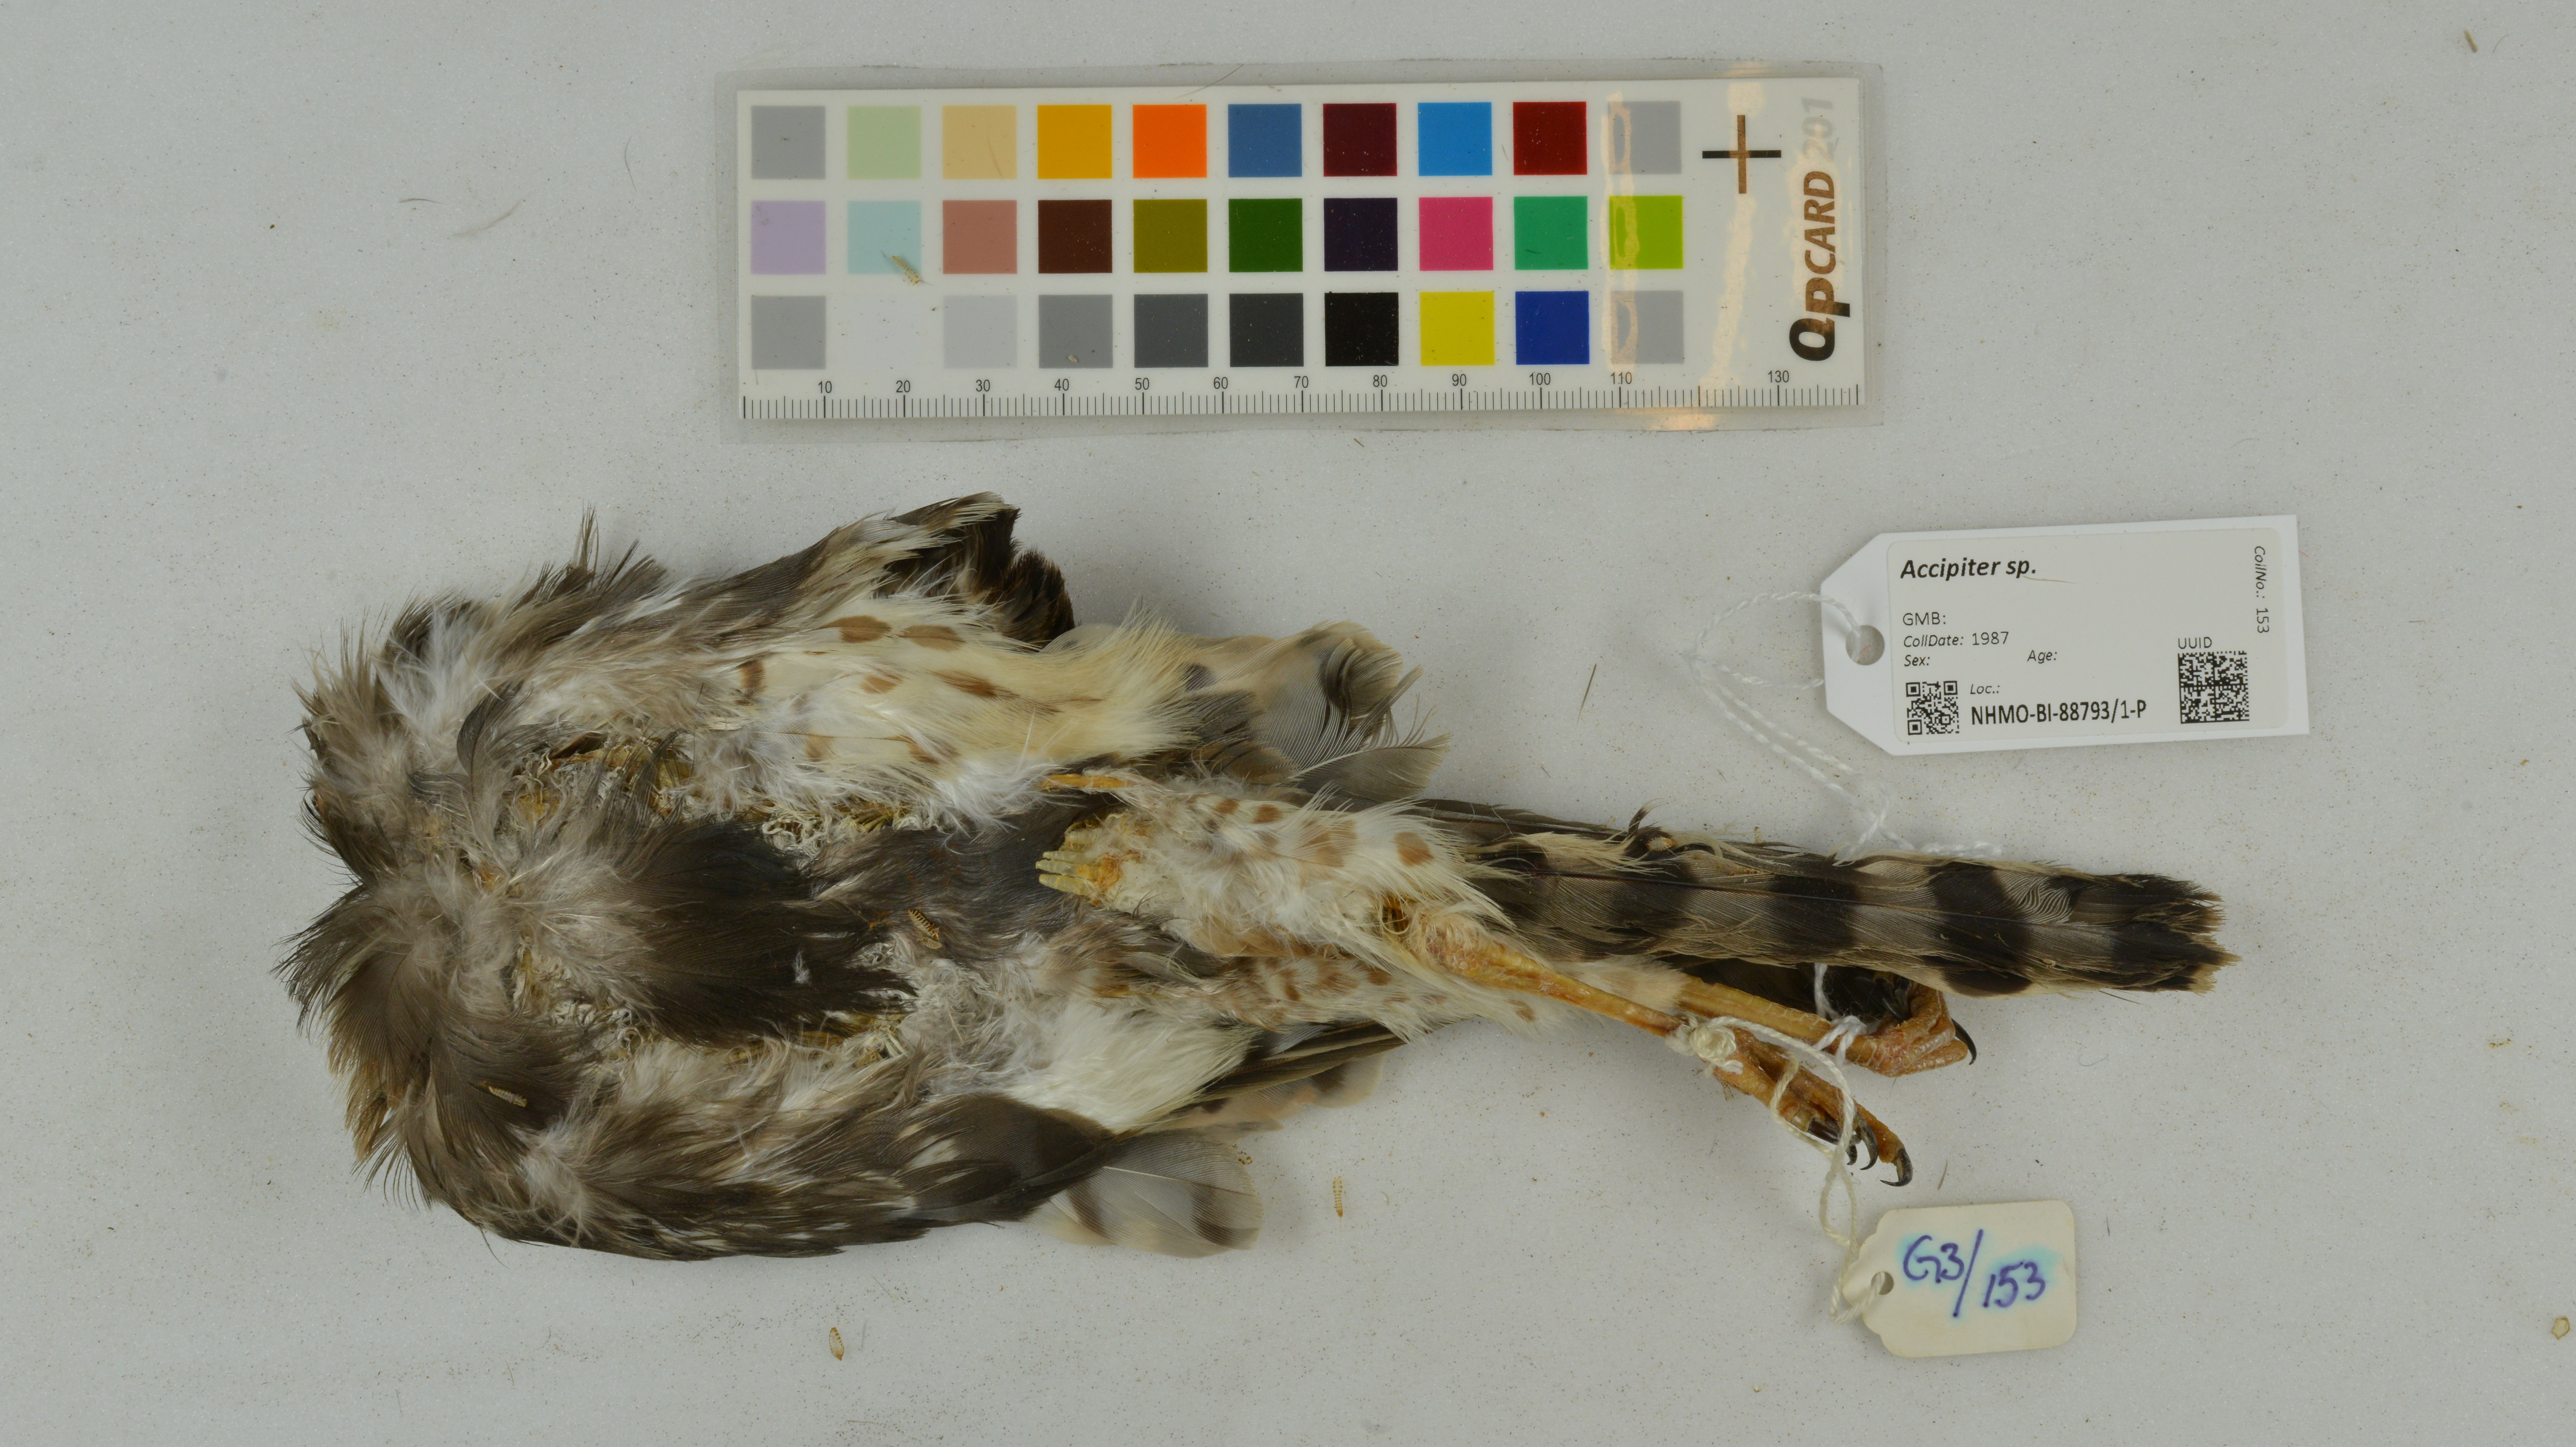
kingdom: Animalia
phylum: Chordata
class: Aves
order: Accipitriformes
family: Accipitridae
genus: Accipiter
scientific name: Accipiter
